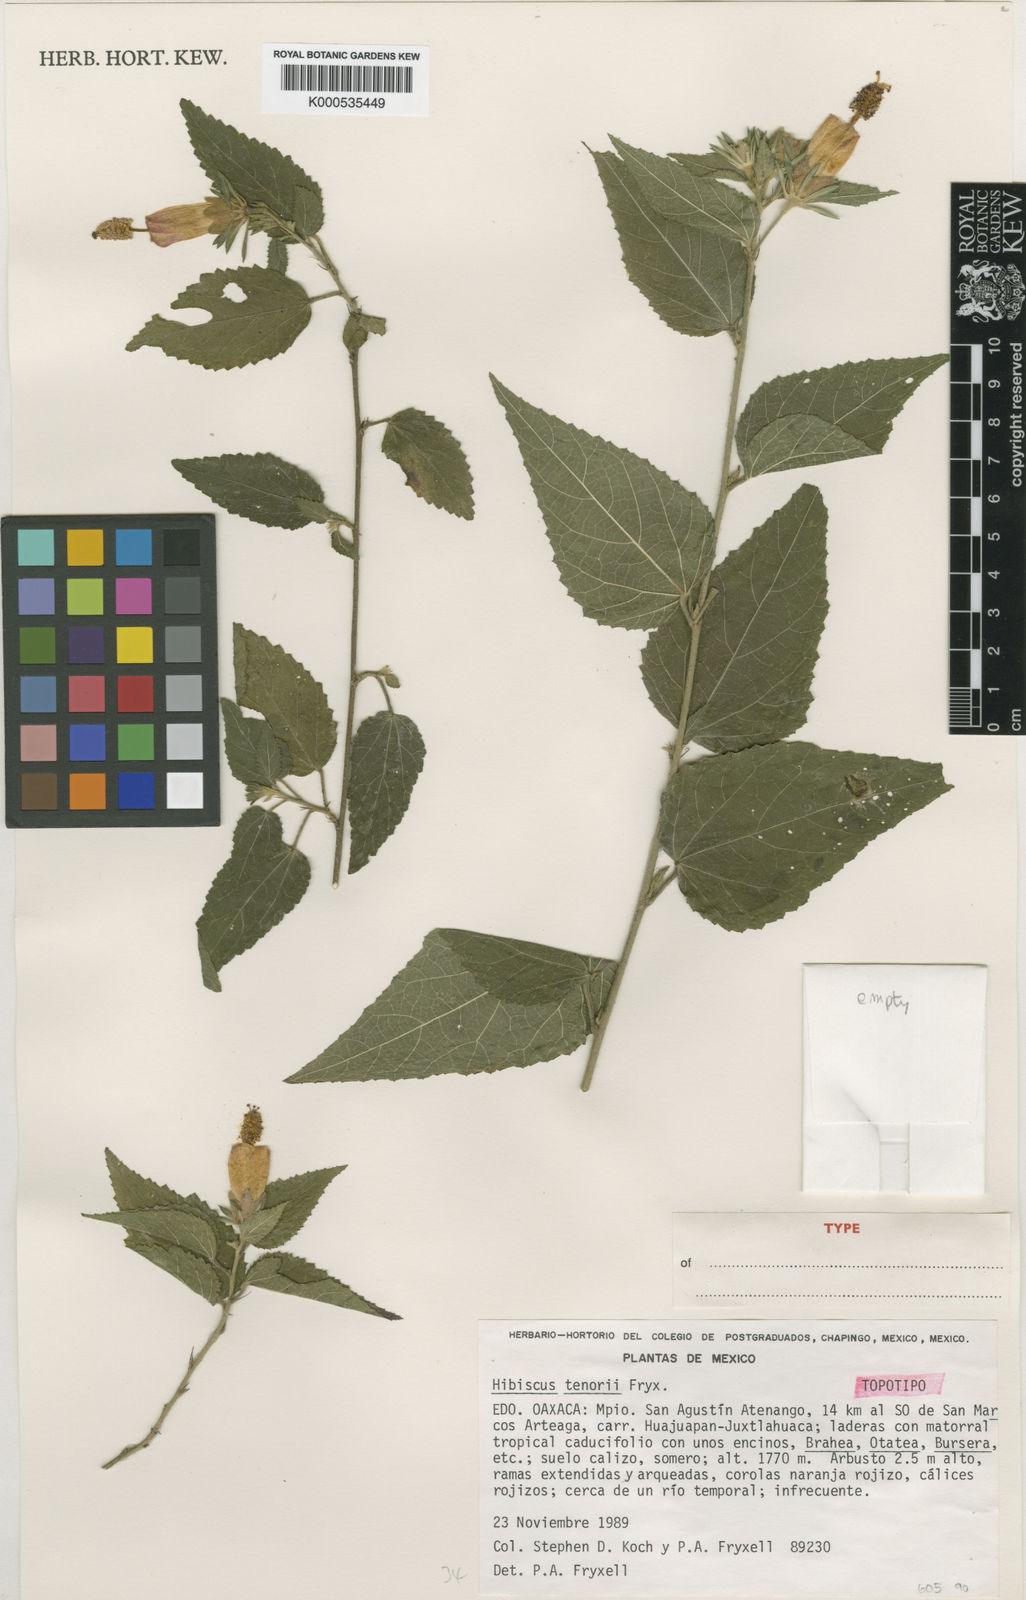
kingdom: Plantae
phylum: Tracheophyta
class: Magnoliopsida
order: Malvales
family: Malvaceae
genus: Hibiscus
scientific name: Hibiscus tenorii
